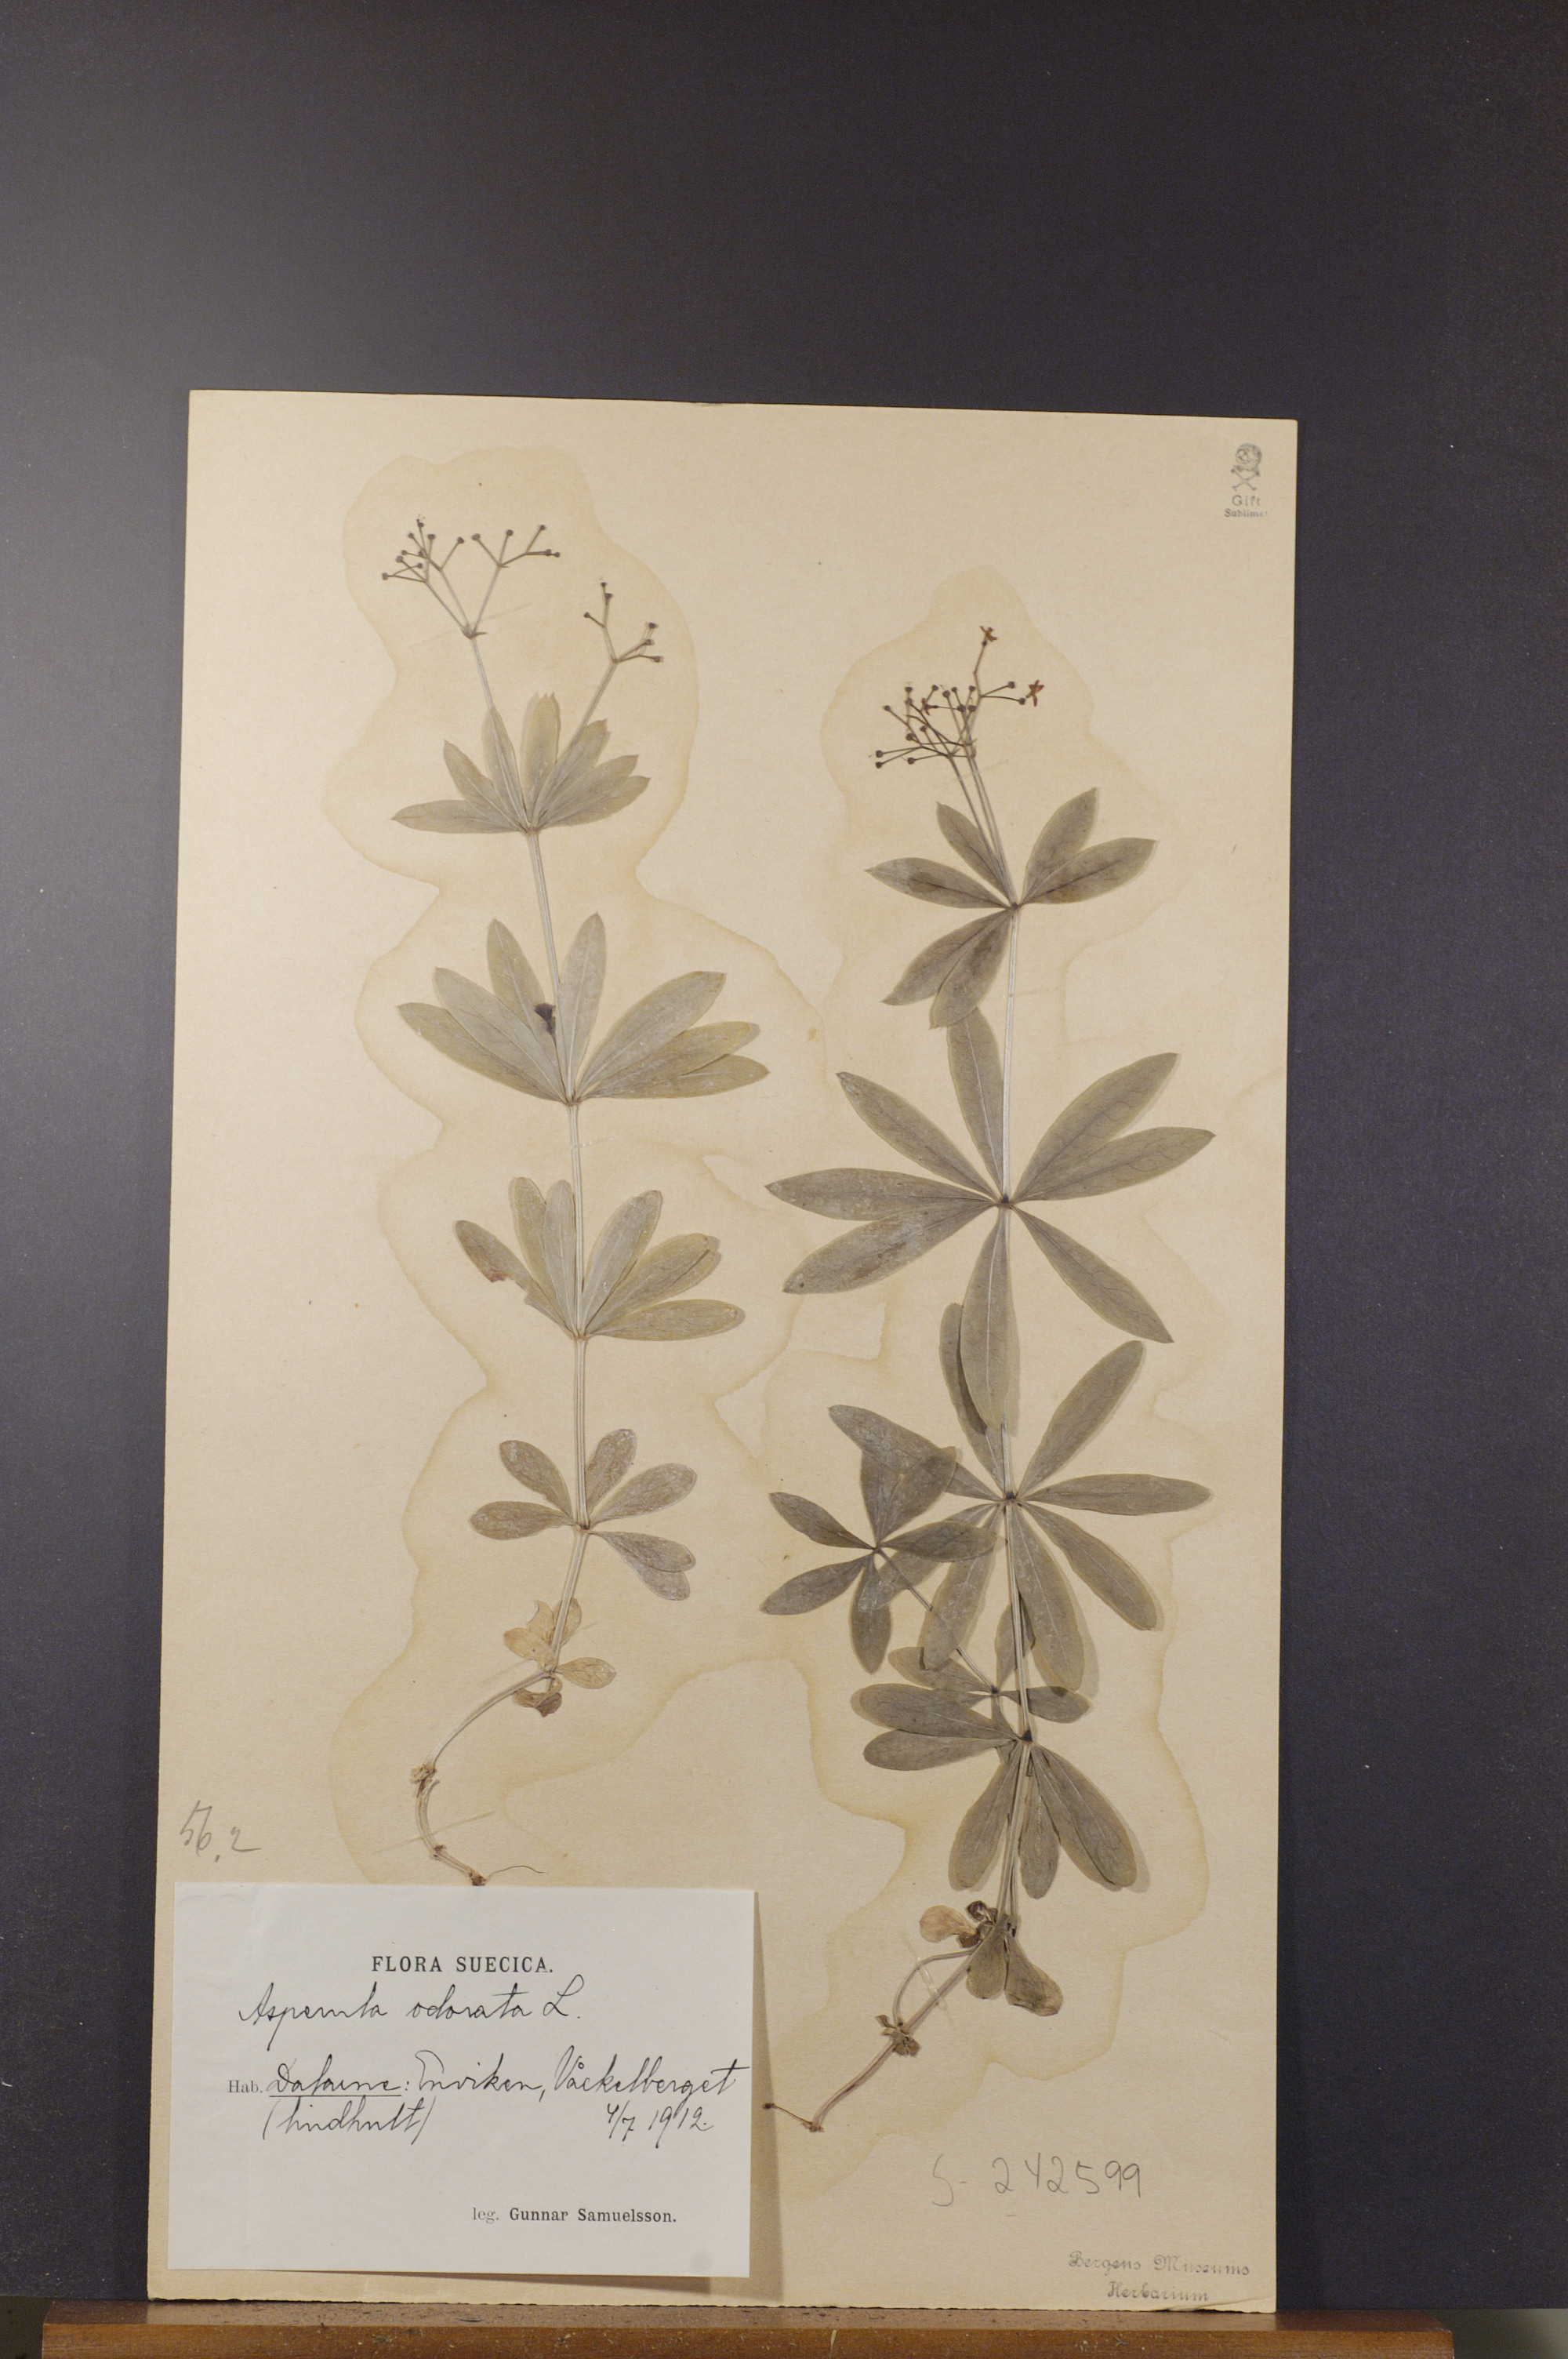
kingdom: Plantae
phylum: Tracheophyta
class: Magnoliopsida
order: Gentianales
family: Rubiaceae
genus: Galium
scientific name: Galium odoratum
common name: Sweet woodruff
